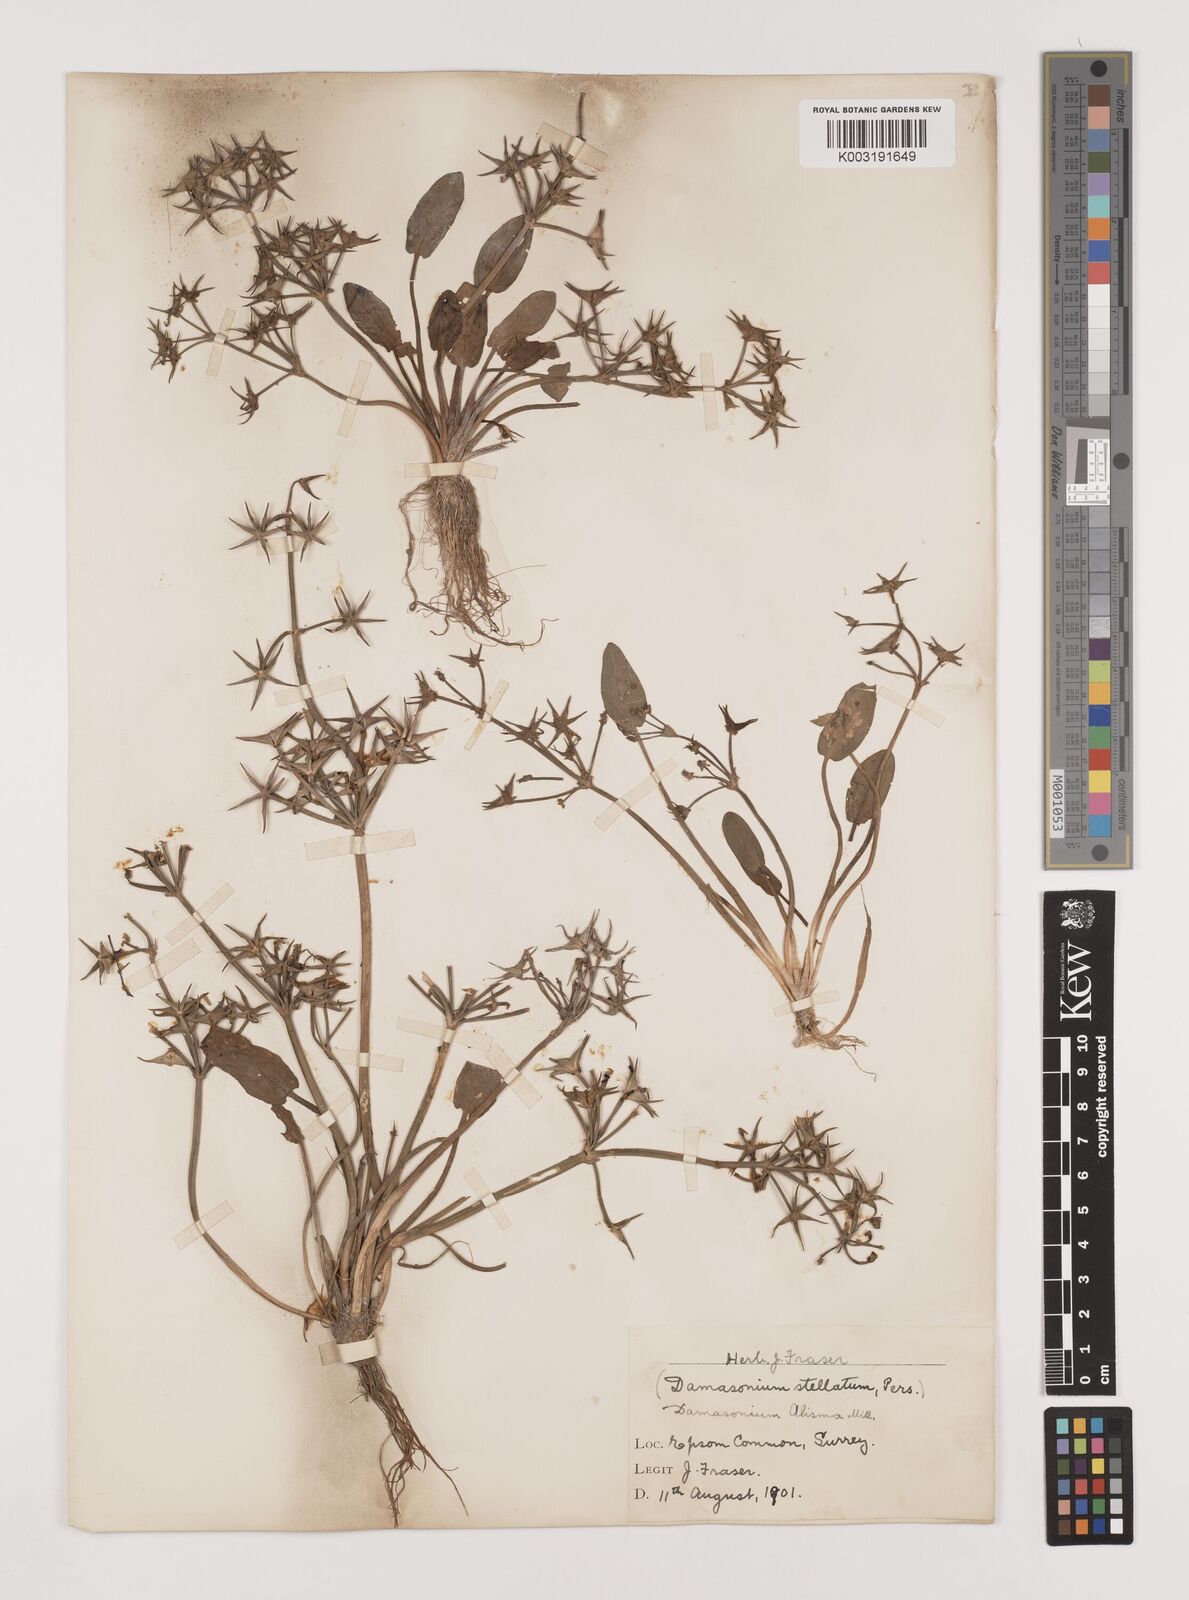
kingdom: Plantae
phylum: Tracheophyta
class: Liliopsida
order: Alismatales
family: Alismataceae
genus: Damasonium
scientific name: Damasonium alisma
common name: Starfruit
